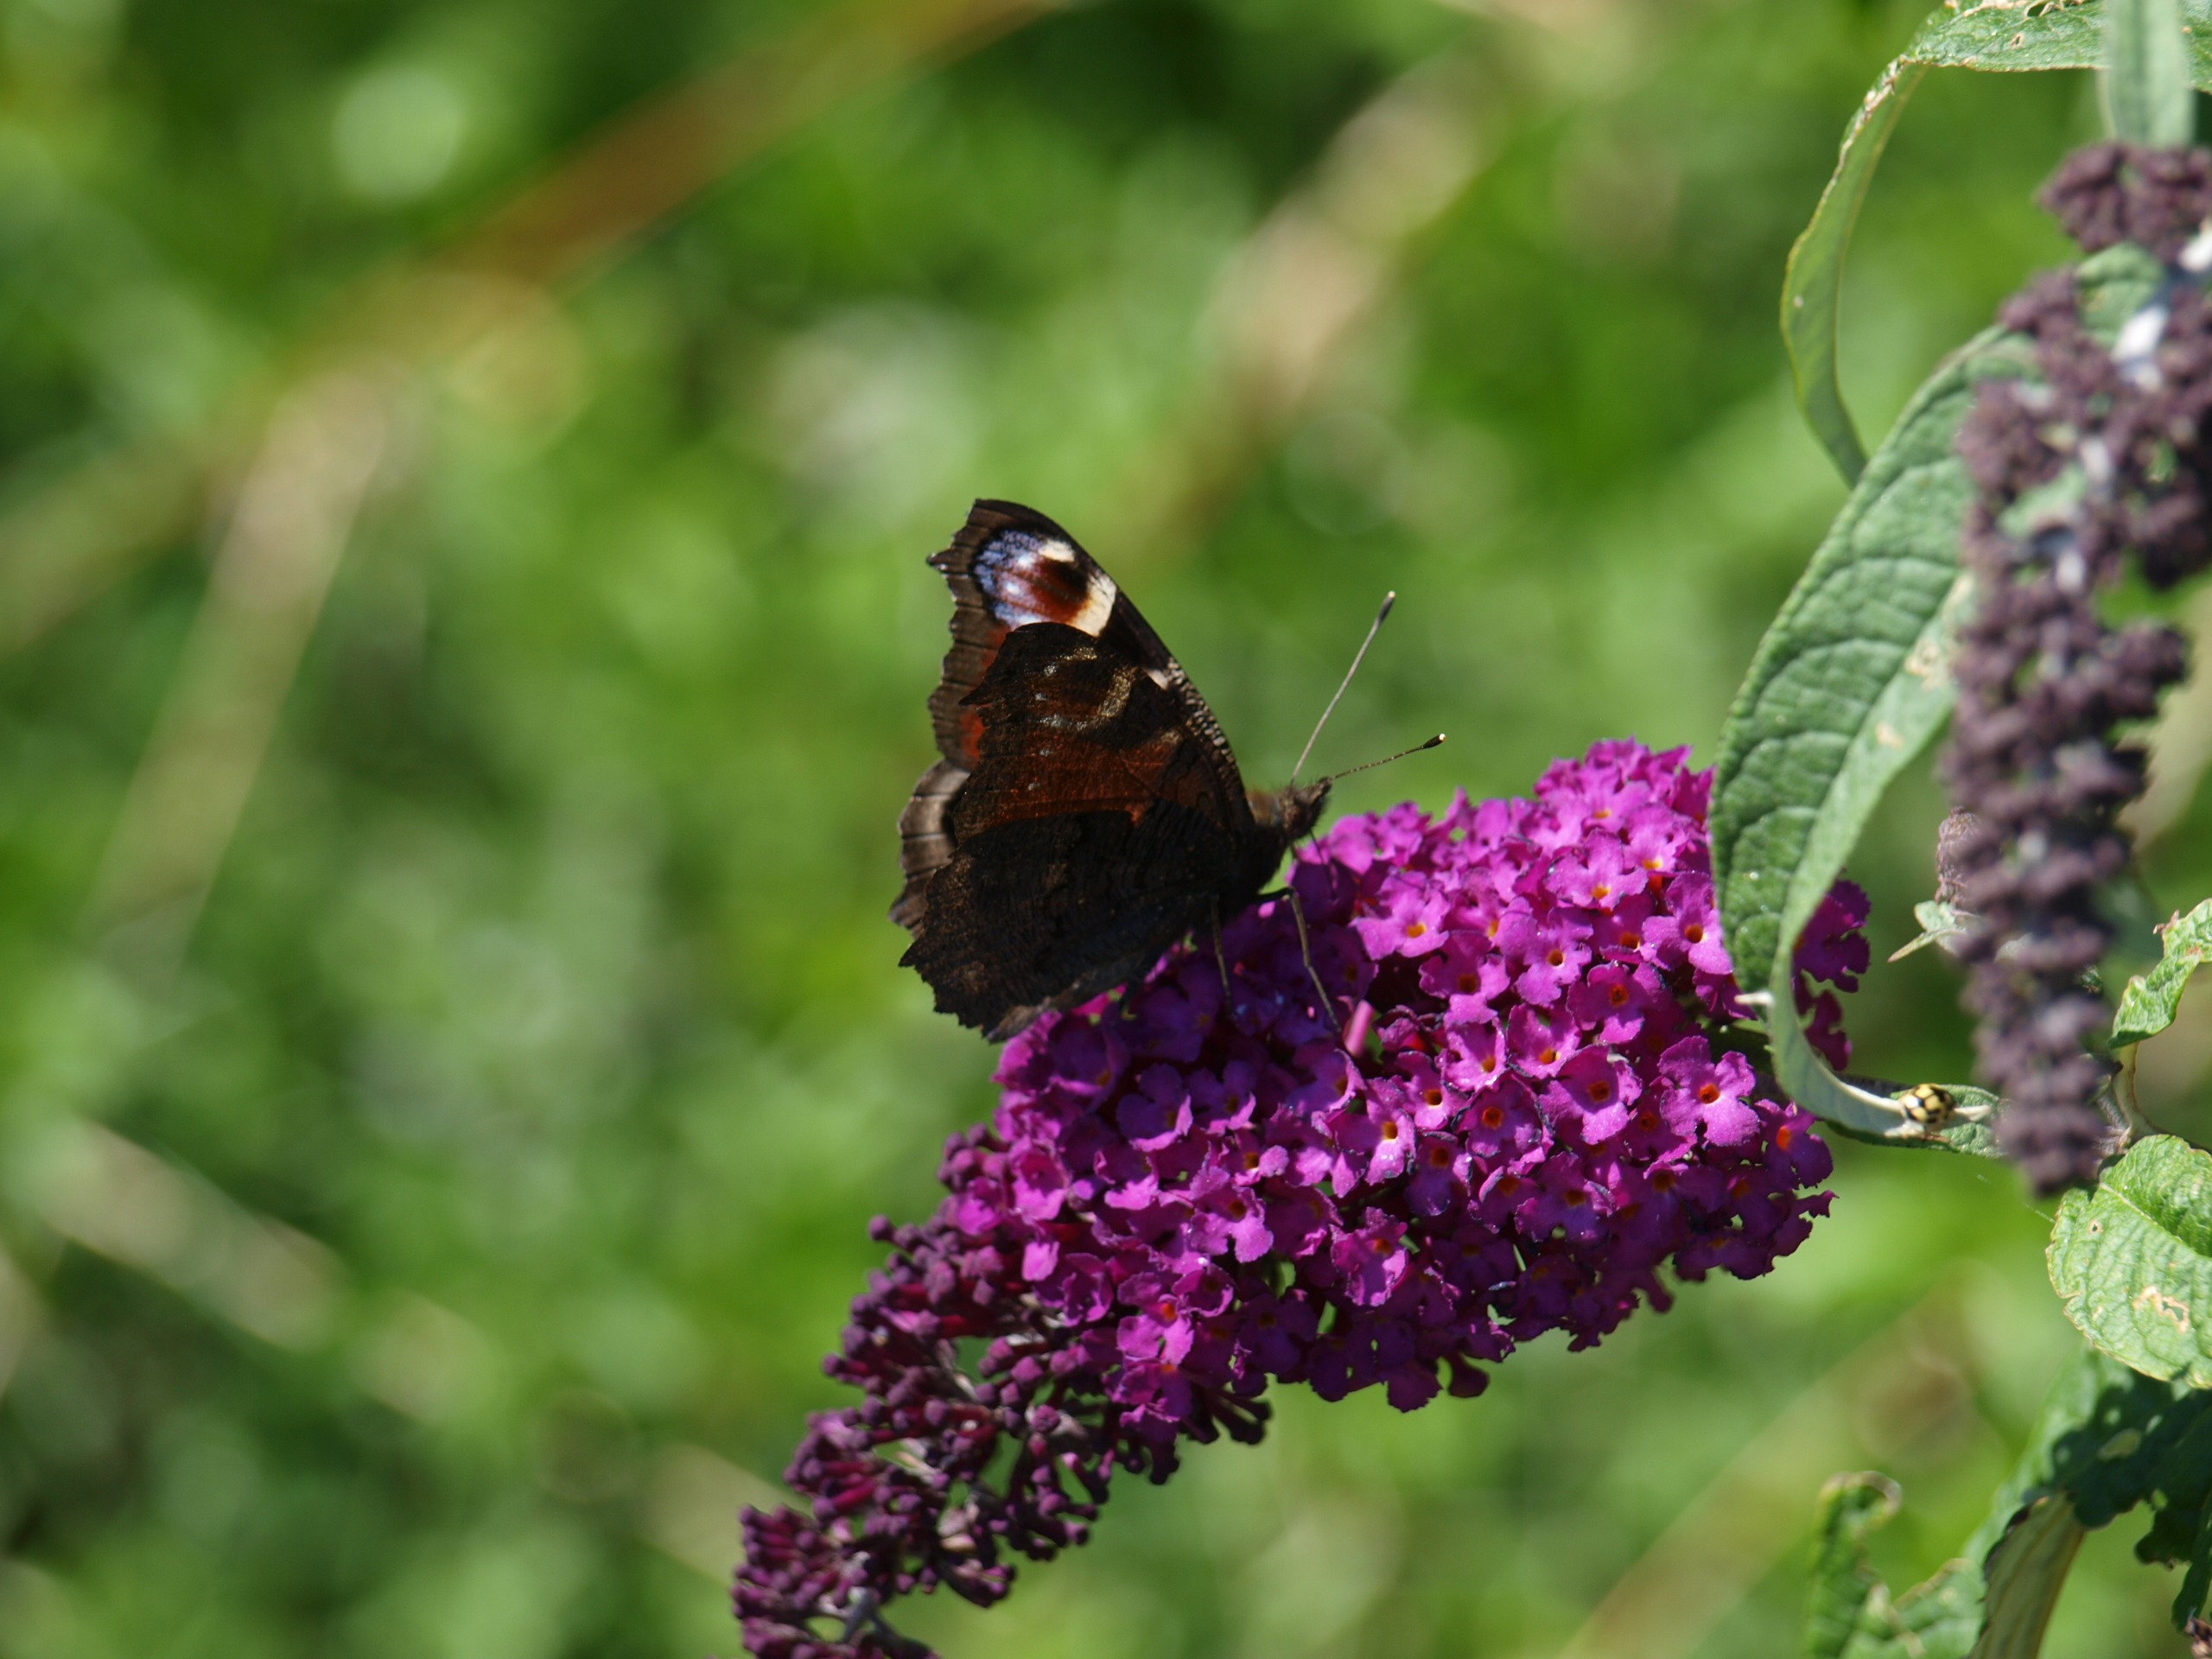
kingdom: Animalia
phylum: Arthropoda
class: Insecta
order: Lepidoptera
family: Nymphalidae
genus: Aglais
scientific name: Aglais io
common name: Dagpåfugleøje
